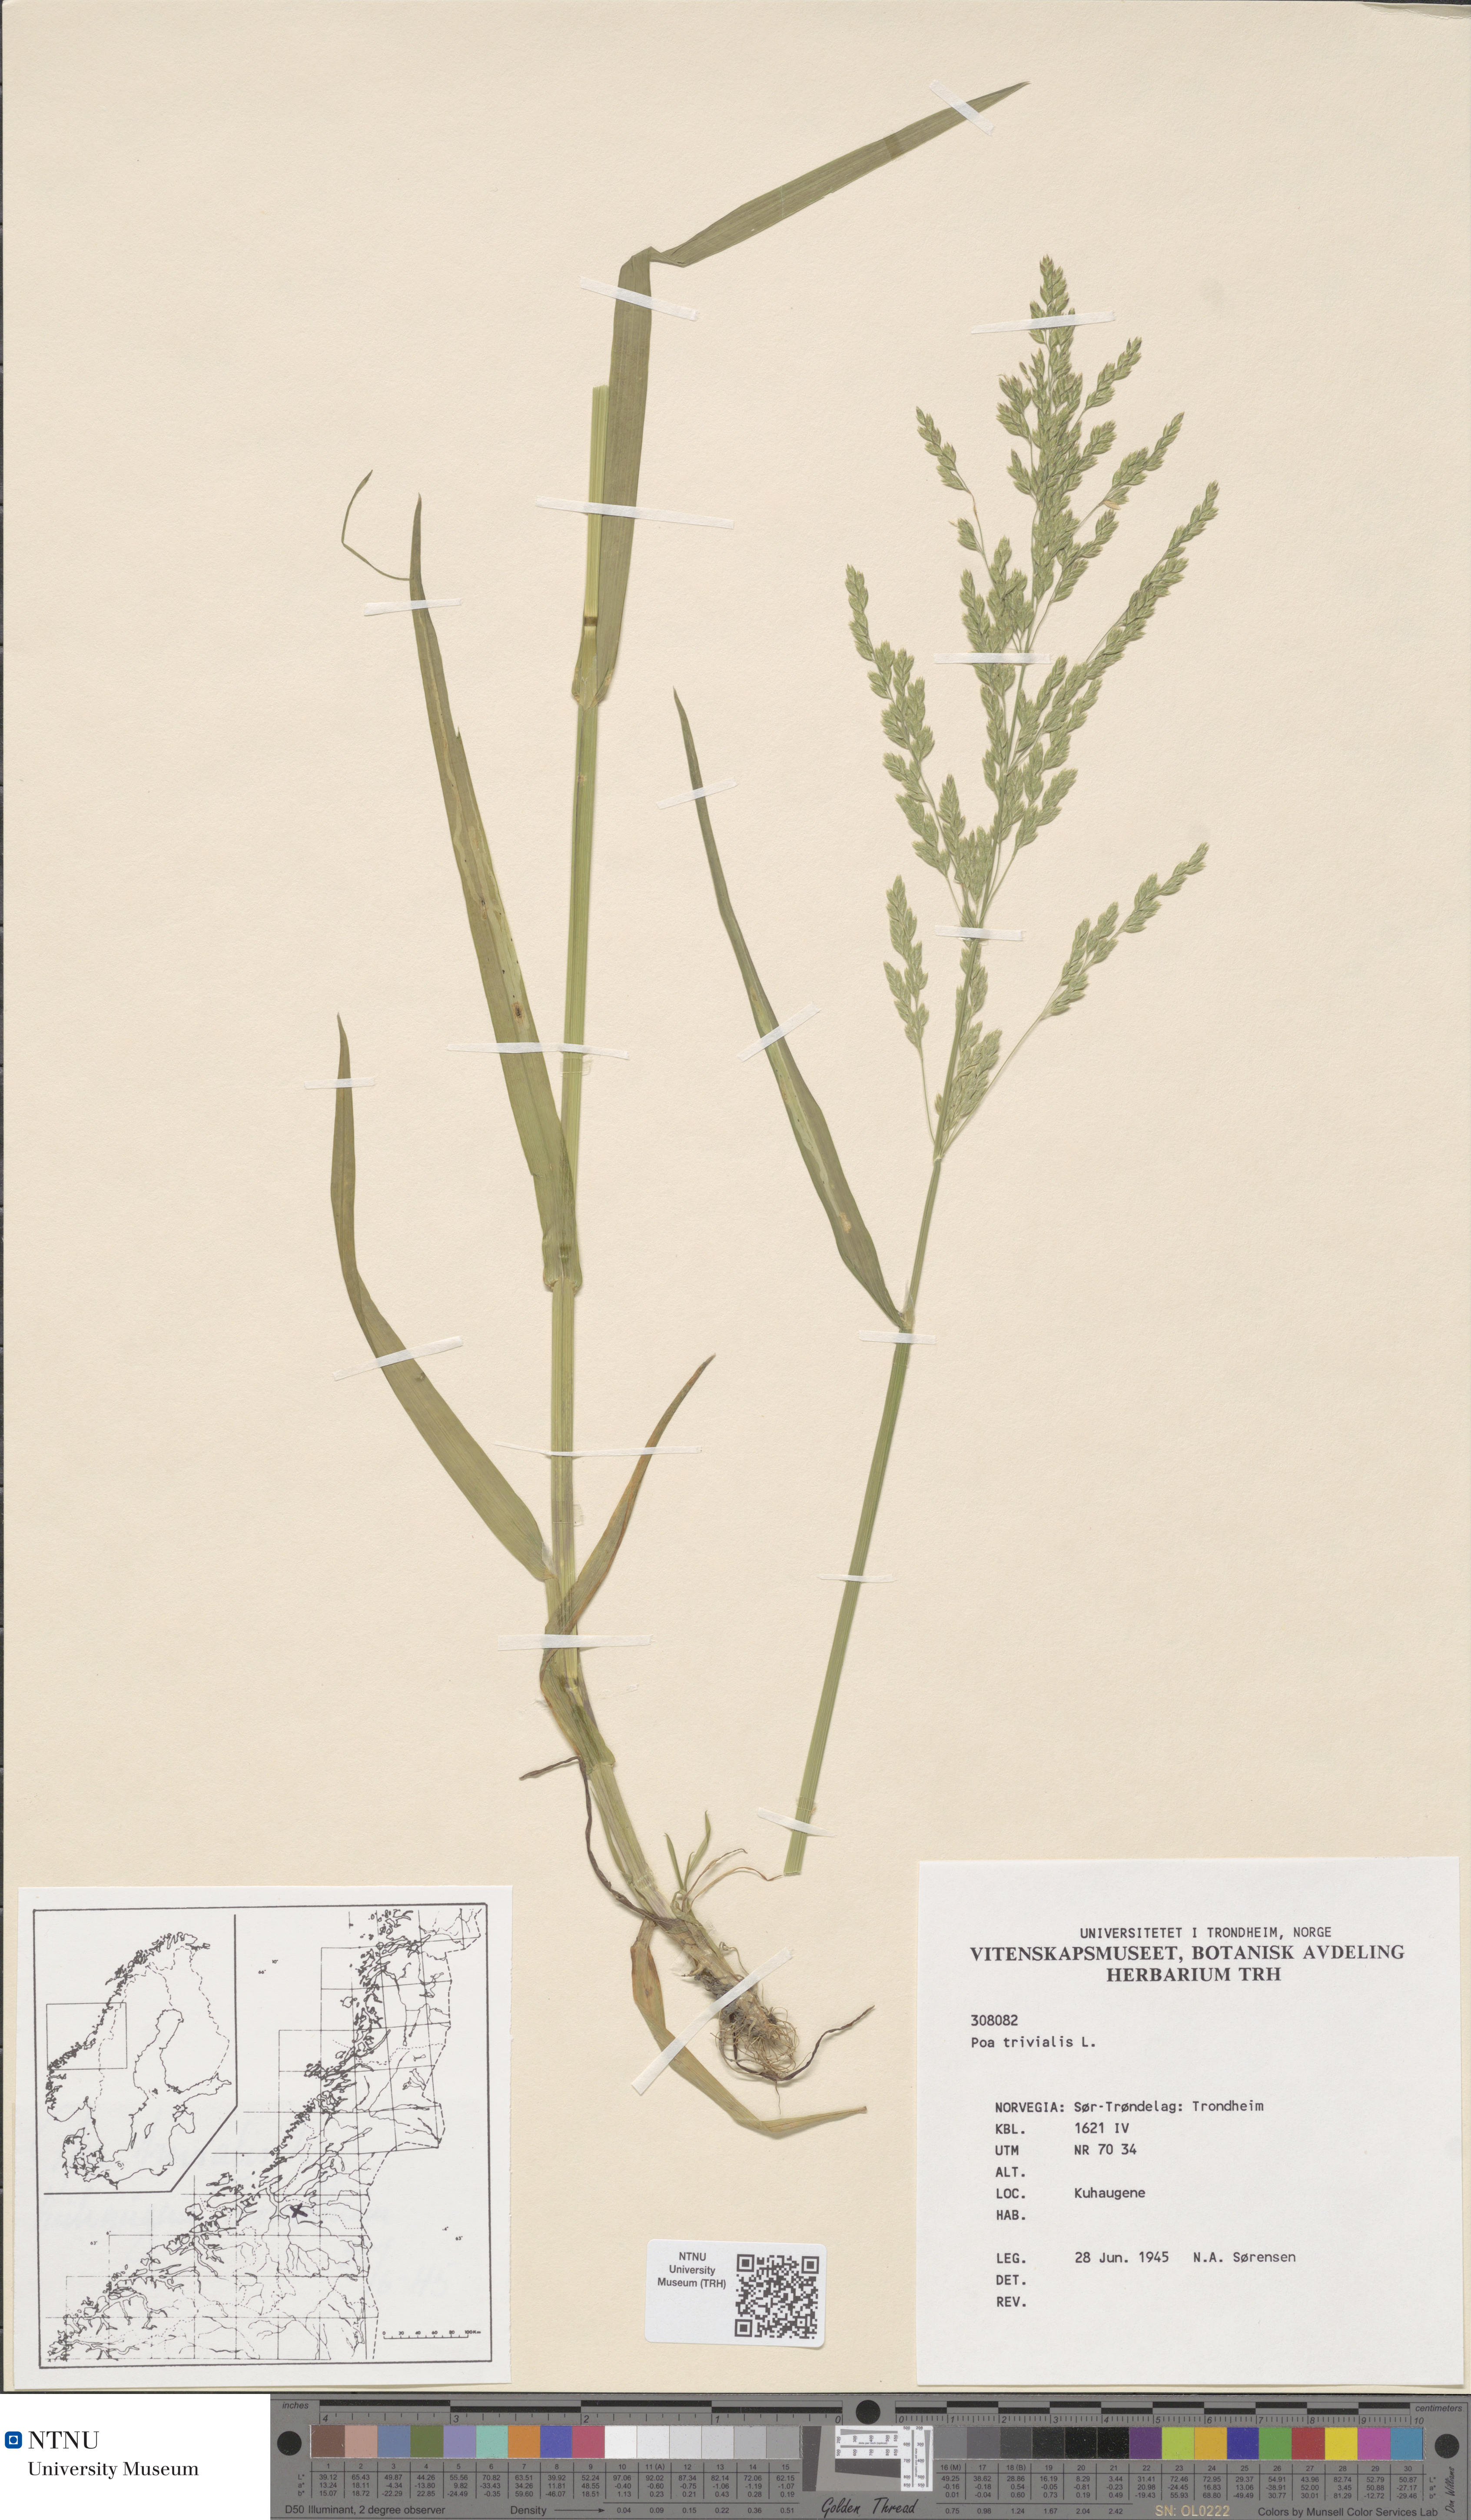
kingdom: Plantae
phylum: Tracheophyta
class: Liliopsida
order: Poales
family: Poaceae
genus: Poa
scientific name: Poa trivialis
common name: Rough bluegrass
